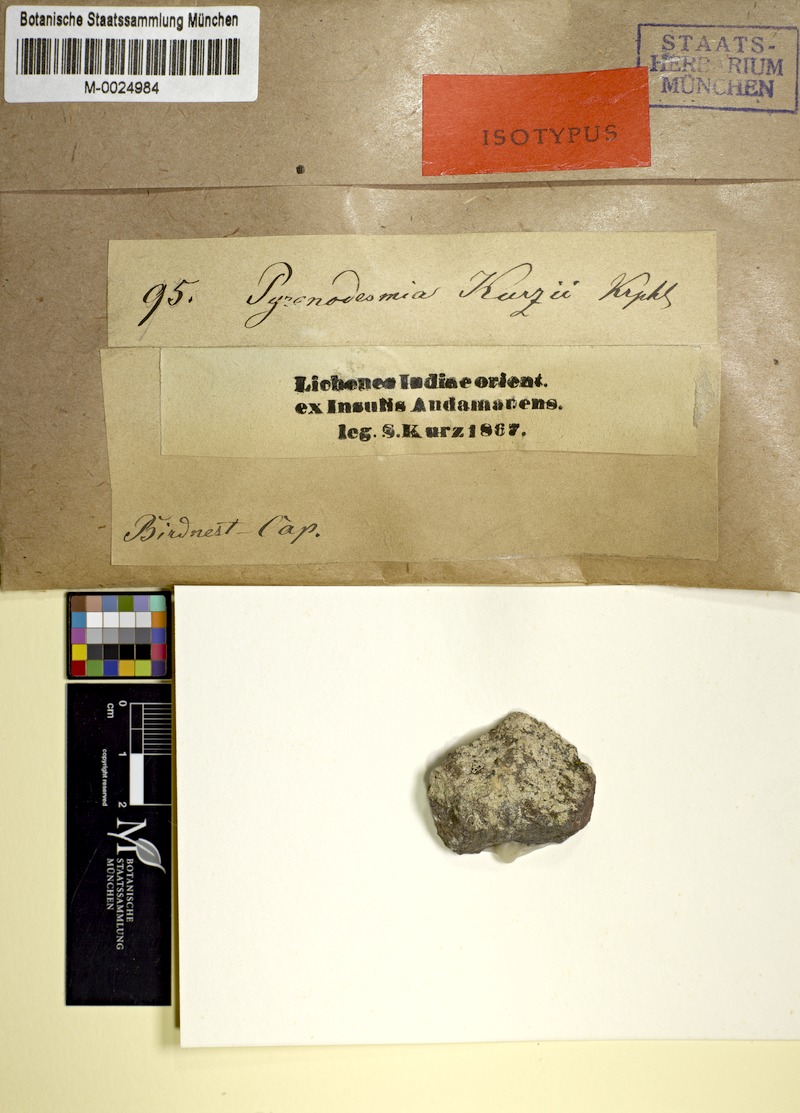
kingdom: Fungi
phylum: Ascomycota
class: Lecanoromycetes
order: Teloschistales
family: Teloschistaceae
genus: Caloplaca
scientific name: Caloplaca kurzii
